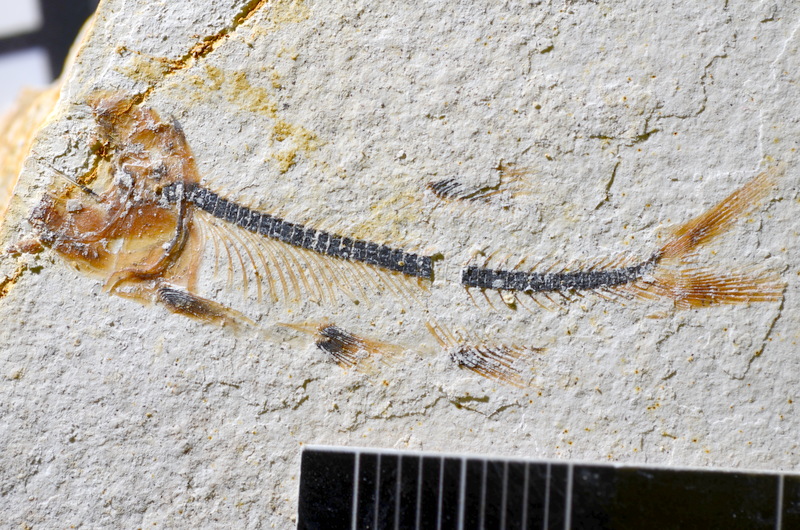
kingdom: Animalia
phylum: Chordata
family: Ascalaboidae
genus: Ebertichthys
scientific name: Ebertichthys ettlingensis
